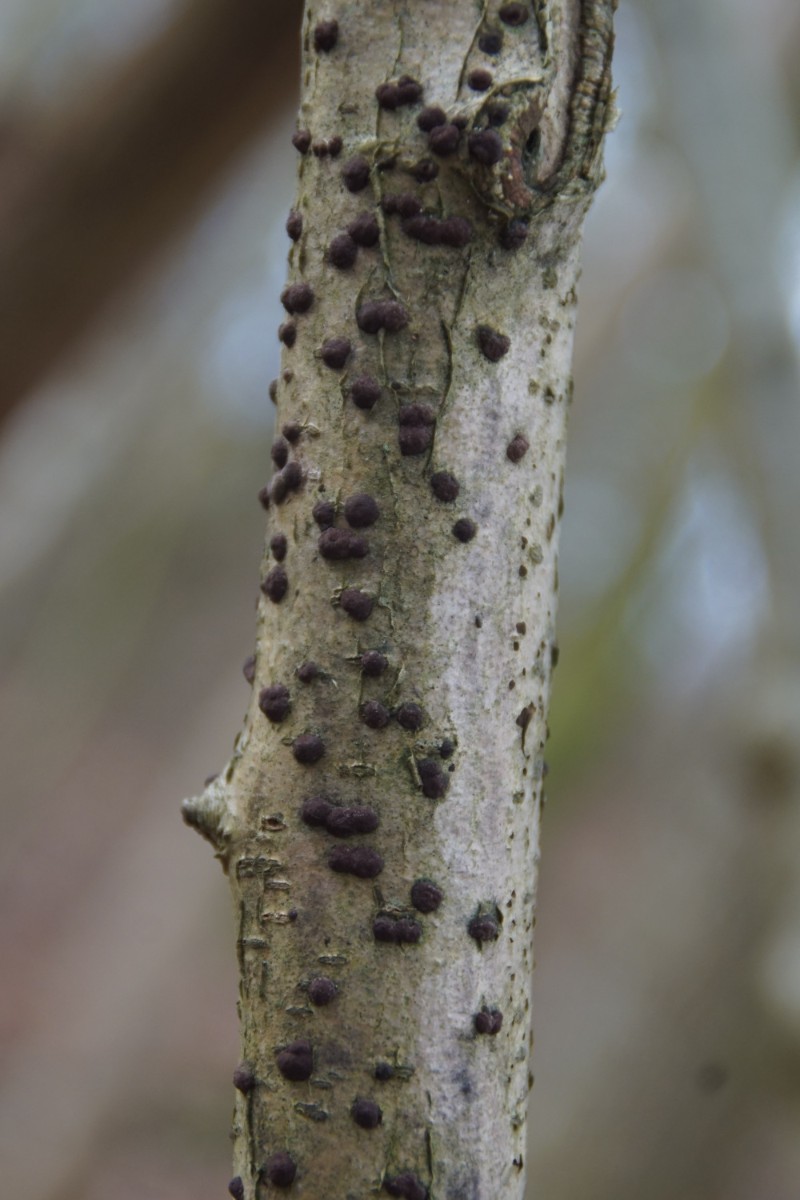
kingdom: Fungi
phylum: Ascomycota
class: Sordariomycetes
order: Xylariales
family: Hypoxylaceae
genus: Hypoxylon
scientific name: Hypoxylon fuscum
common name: kegleformet kulbær
